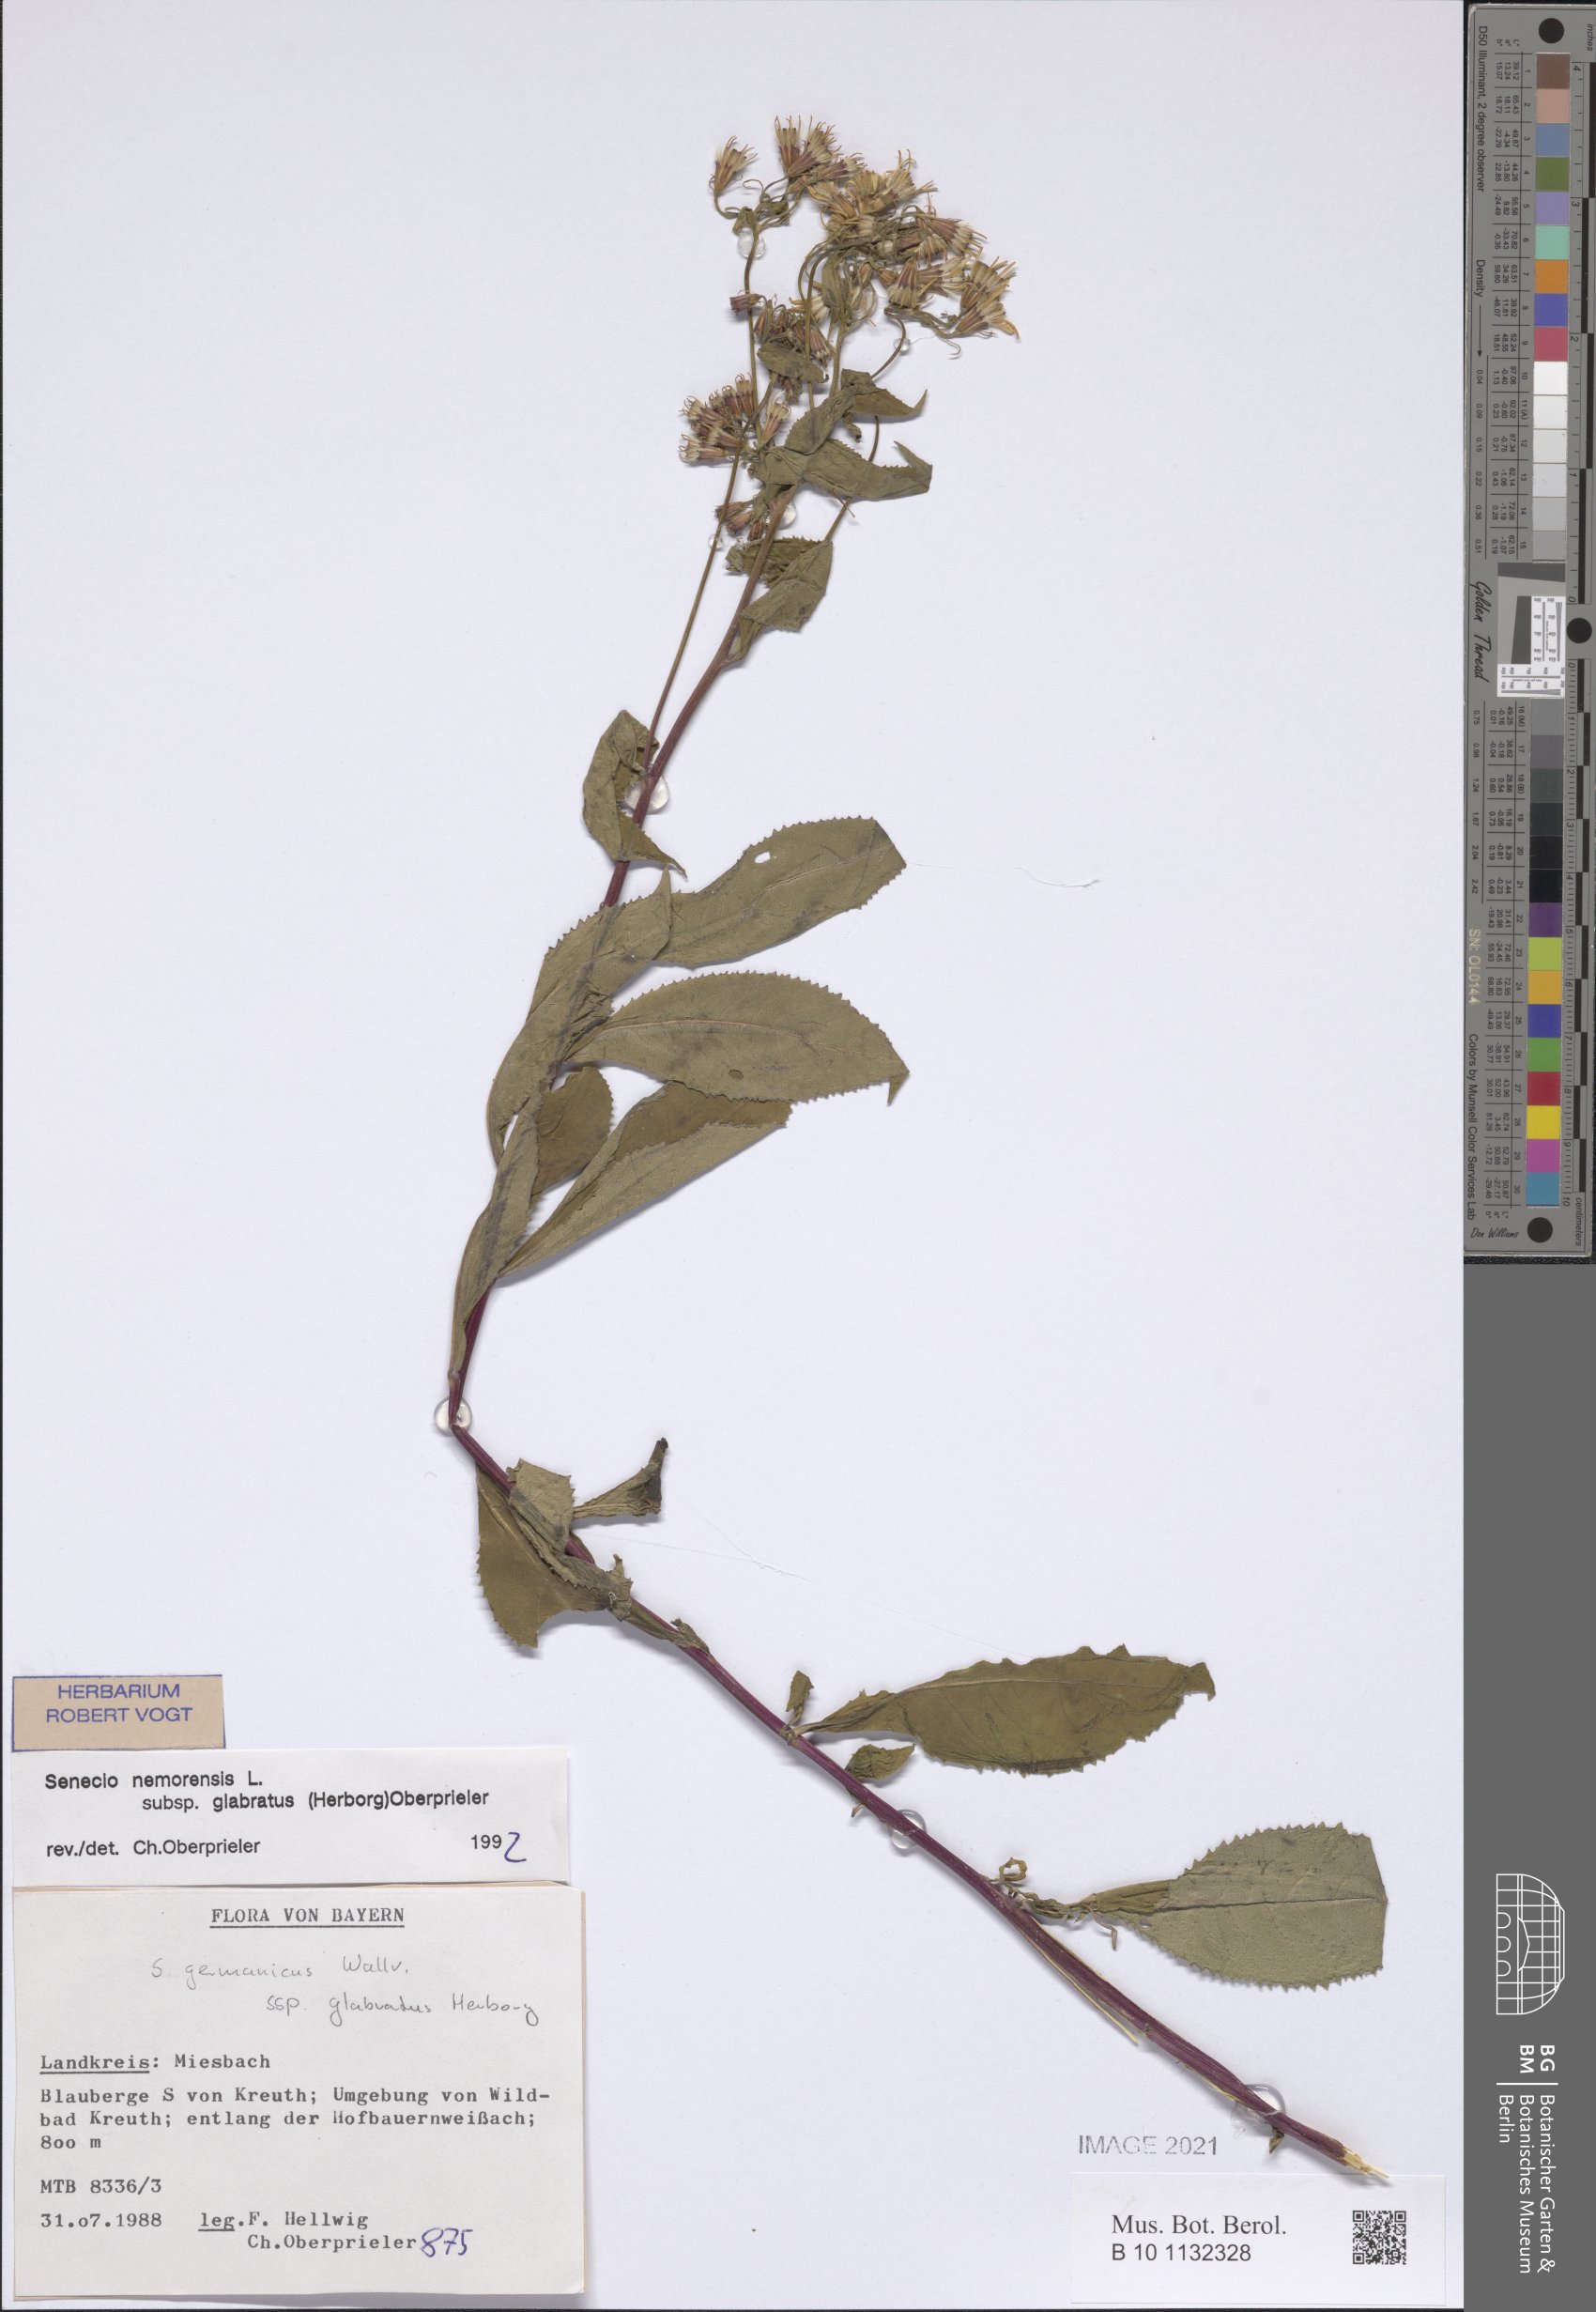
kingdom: Plantae
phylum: Tracheophyta
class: Magnoliopsida
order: Asterales
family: Asteraceae
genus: Senecio
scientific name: Senecio germanicus
